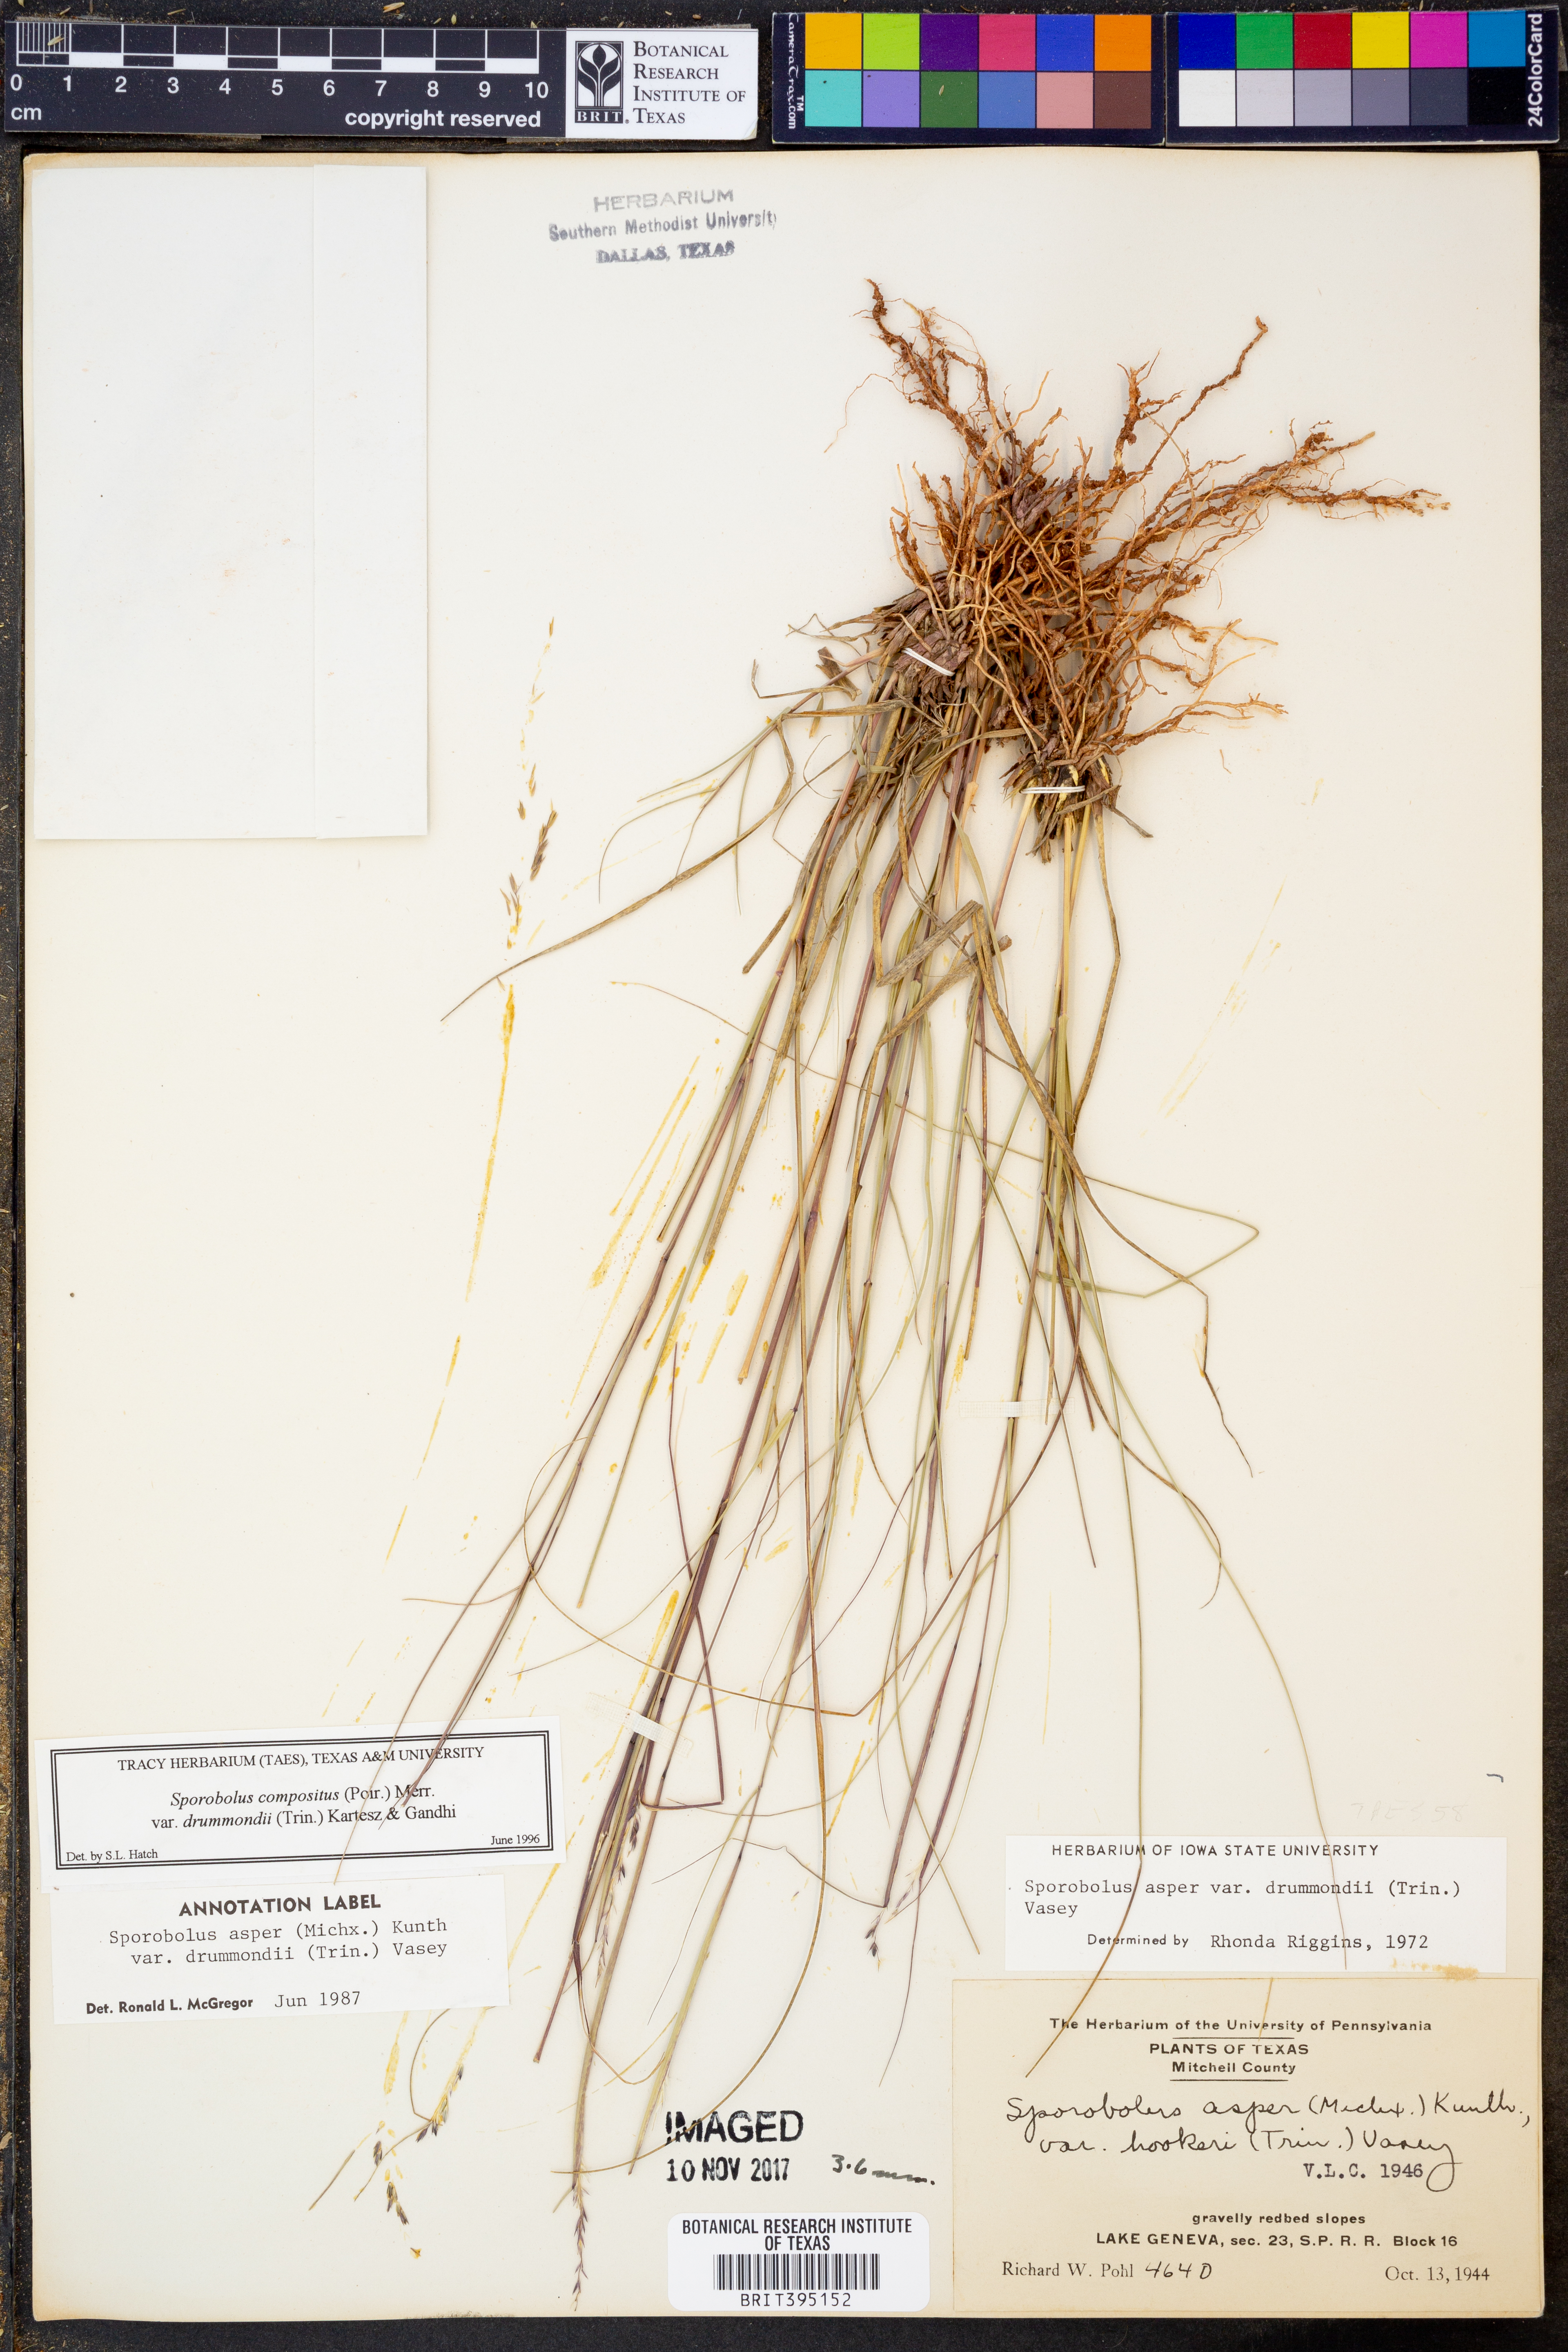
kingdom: Plantae
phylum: Tracheophyta
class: Liliopsida
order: Poales
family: Poaceae
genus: Sporobolus
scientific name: Sporobolus compositus
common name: Rough dropseed
